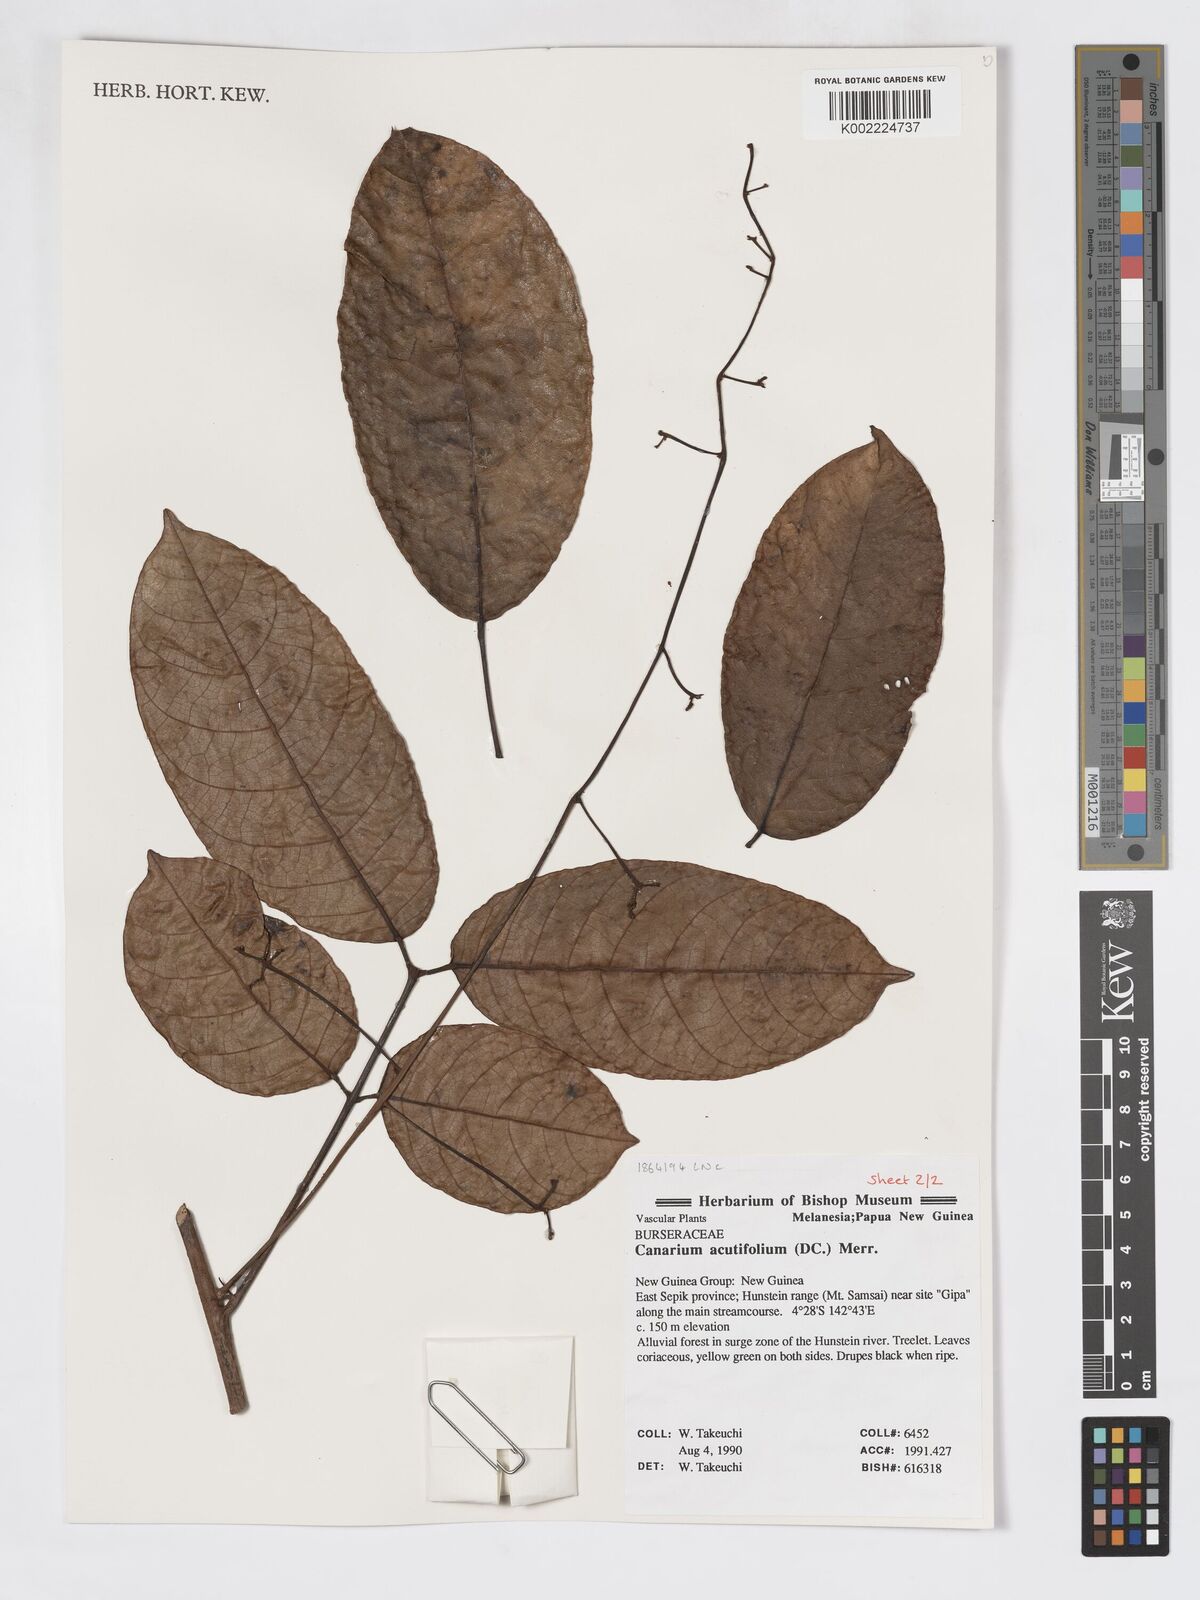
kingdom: Plantae
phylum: Tracheophyta
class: Magnoliopsida
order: Sapindales
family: Burseraceae
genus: Canarium
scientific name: Canarium acutifolium
